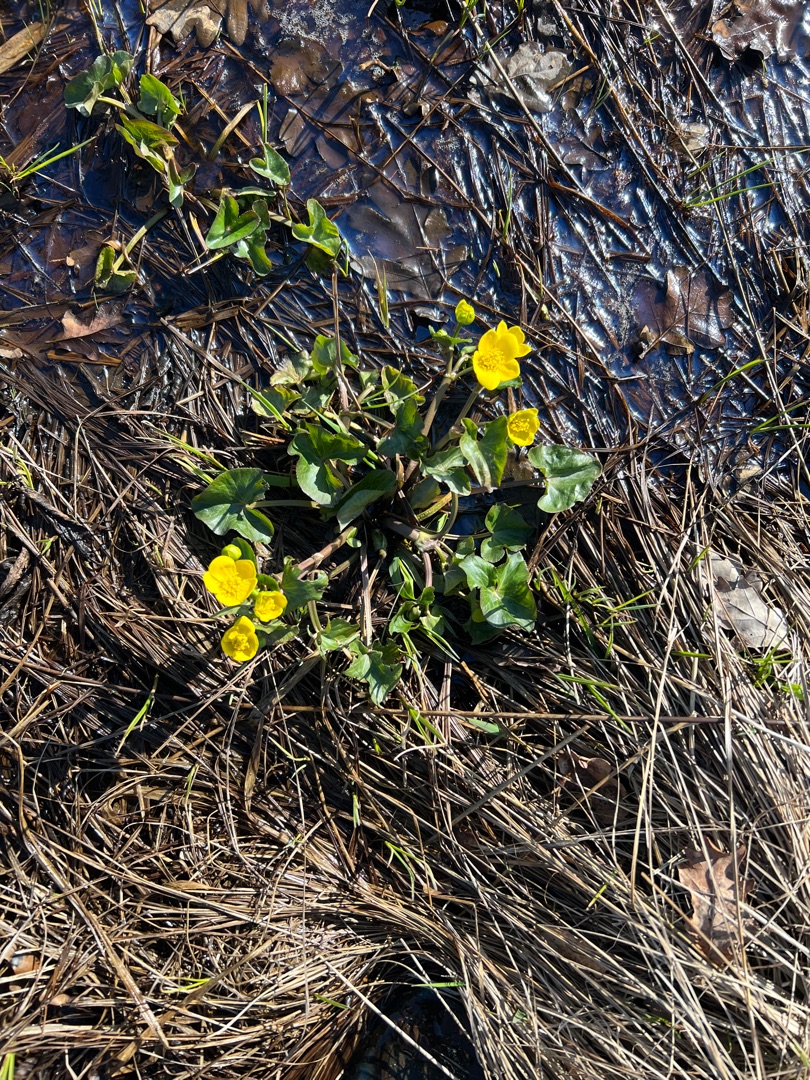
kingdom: Plantae
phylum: Tracheophyta
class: Magnoliopsida
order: Ranunculales
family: Ranunculaceae
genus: Caltha
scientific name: Caltha palustris
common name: Eng-kabbeleje
